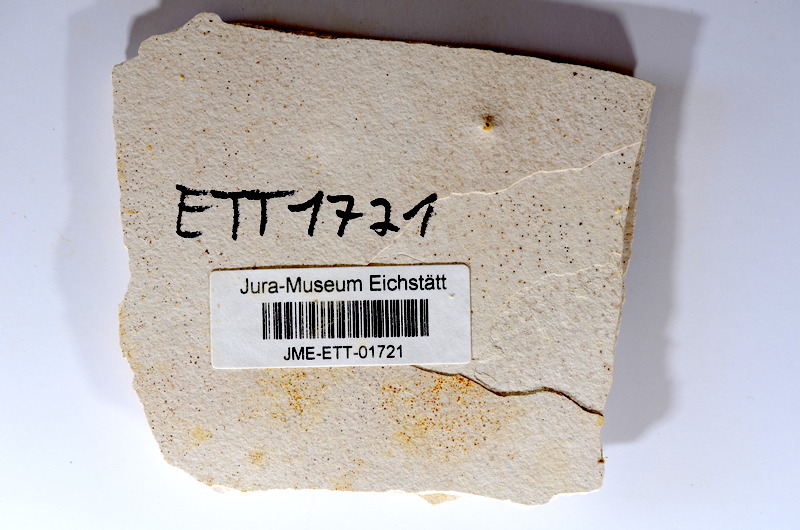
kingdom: Animalia
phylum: Chordata
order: Salmoniformes
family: Orthogonikleithridae
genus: Orthogonikleithrus
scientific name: Orthogonikleithrus hoelli
